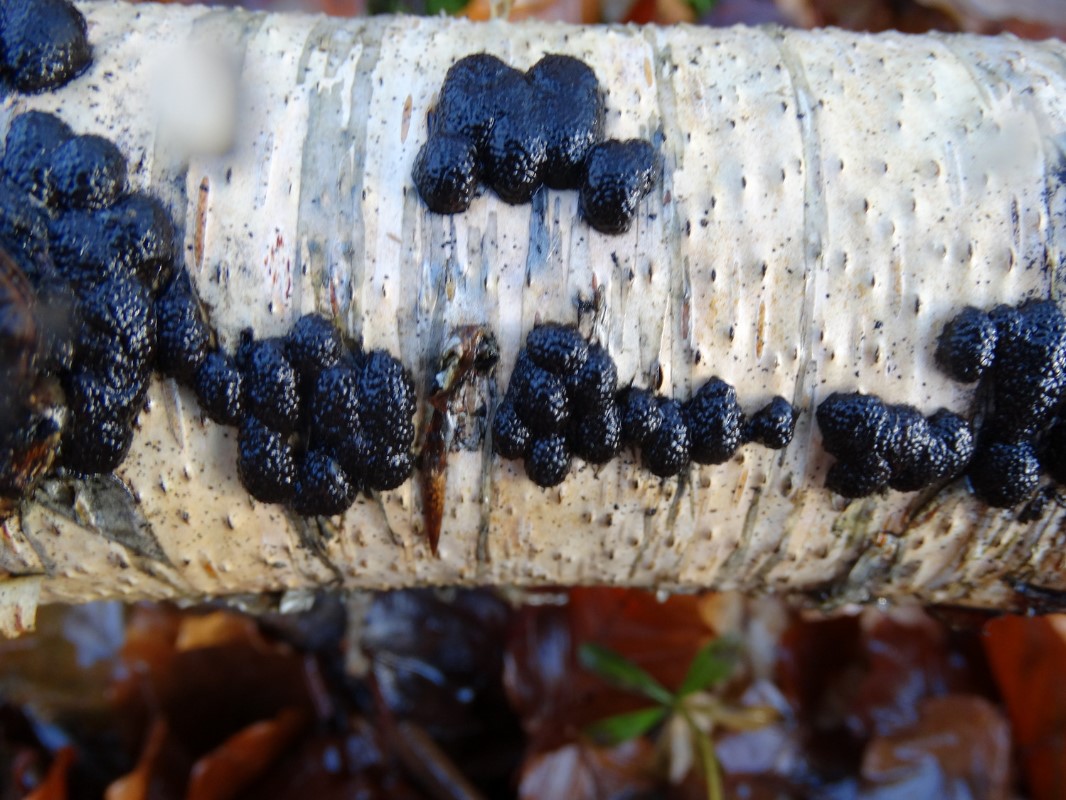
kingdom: Fungi
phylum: Ascomycota
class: Sordariomycetes
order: Xylariales
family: Hypoxylaceae
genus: Jackrogersella
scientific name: Jackrogersella multiformis
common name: foranderlig kulbær
